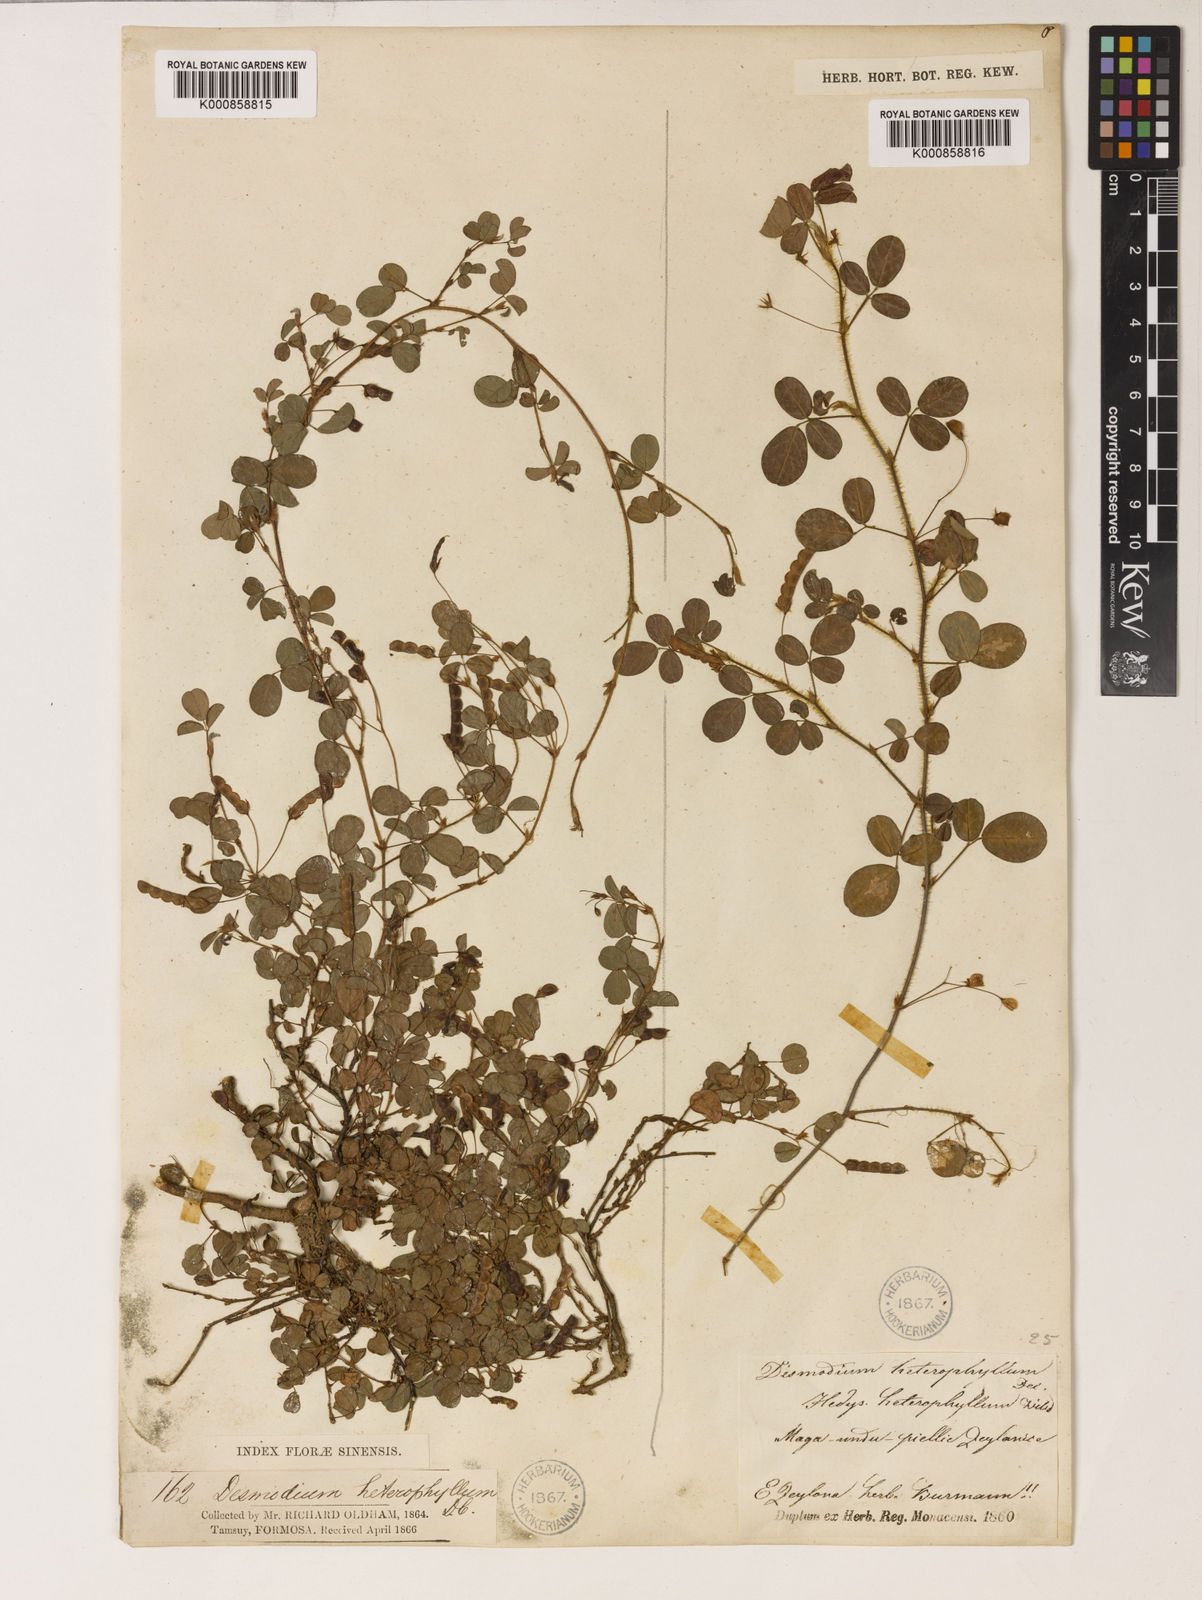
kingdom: Plantae
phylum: Tracheophyta
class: Magnoliopsida
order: Fabales
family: Fabaceae
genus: Grona
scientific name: Grona heterophylla
